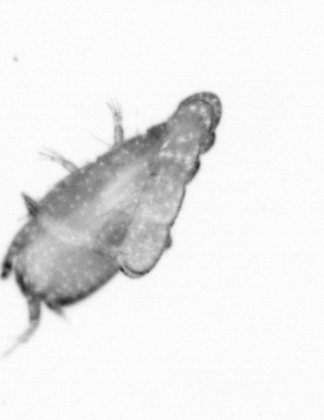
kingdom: Animalia
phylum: Annelida
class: Polychaeta
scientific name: Polychaeta
